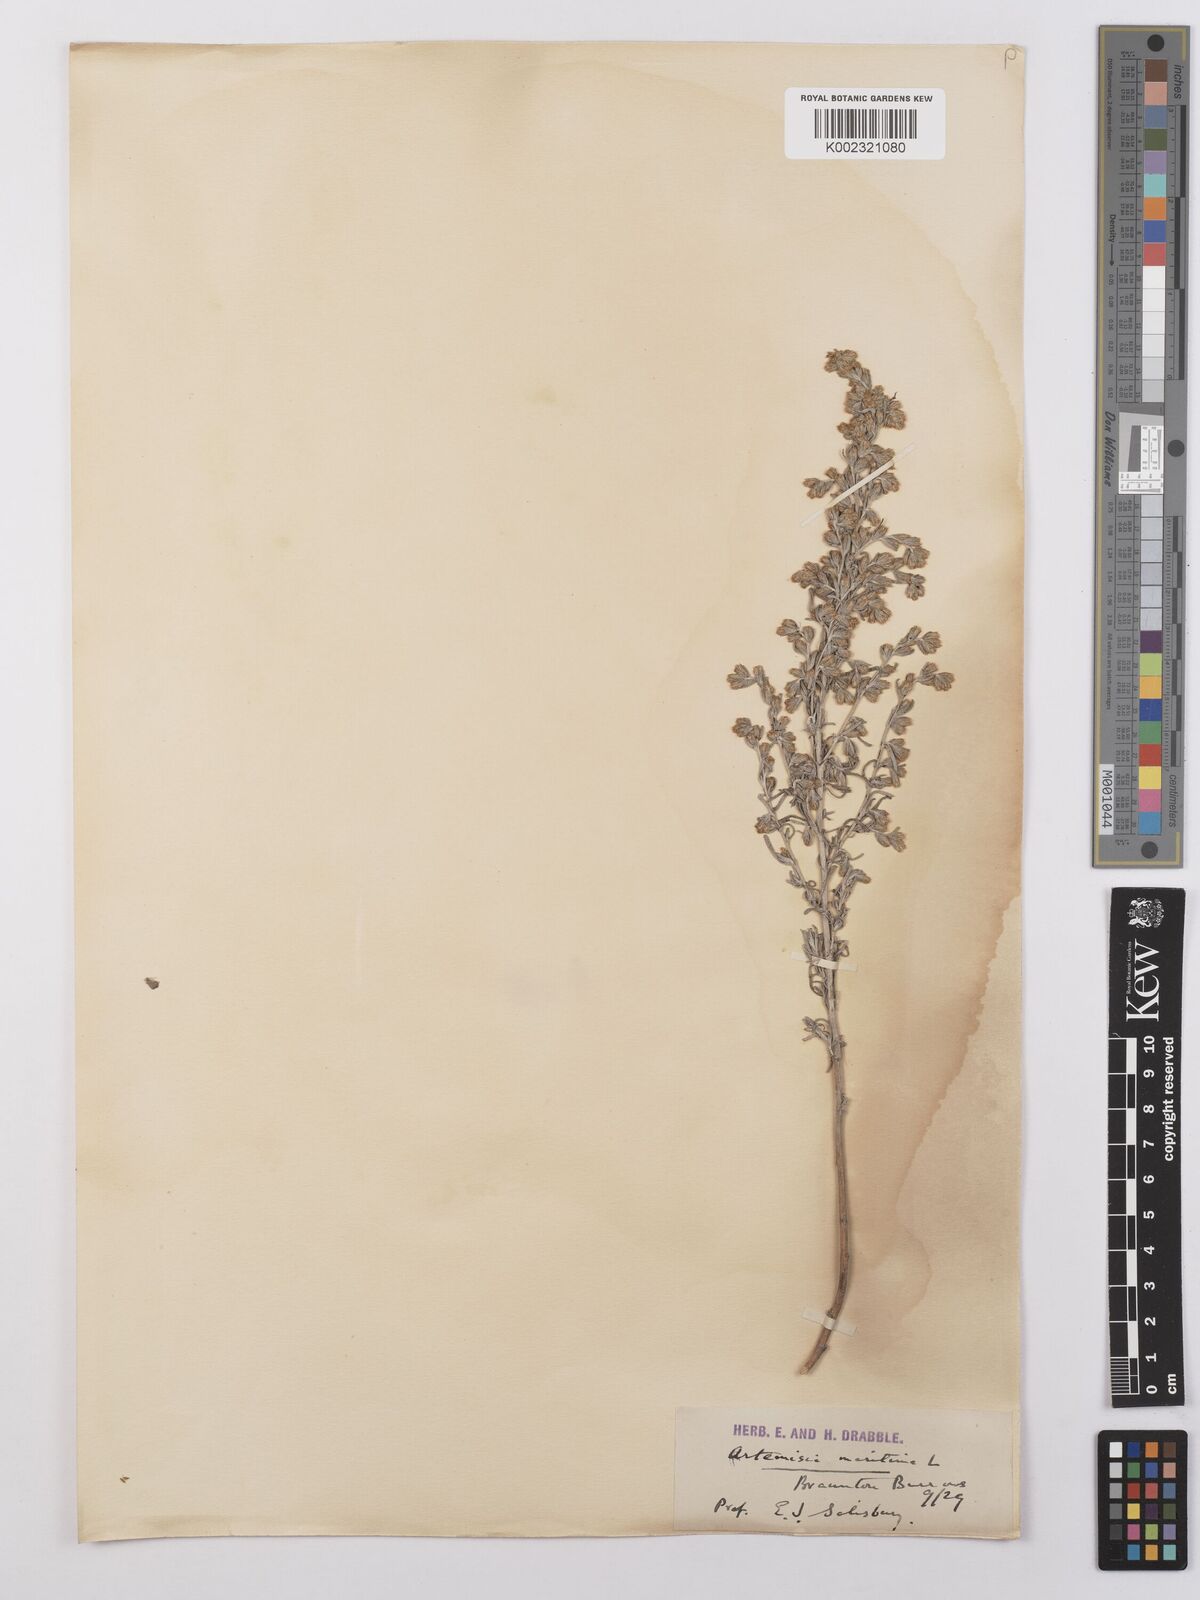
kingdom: Plantae
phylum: Tracheophyta
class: Magnoliopsida
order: Asterales
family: Asteraceae
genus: Artemisia
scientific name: Artemisia maritima
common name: Wormseed
